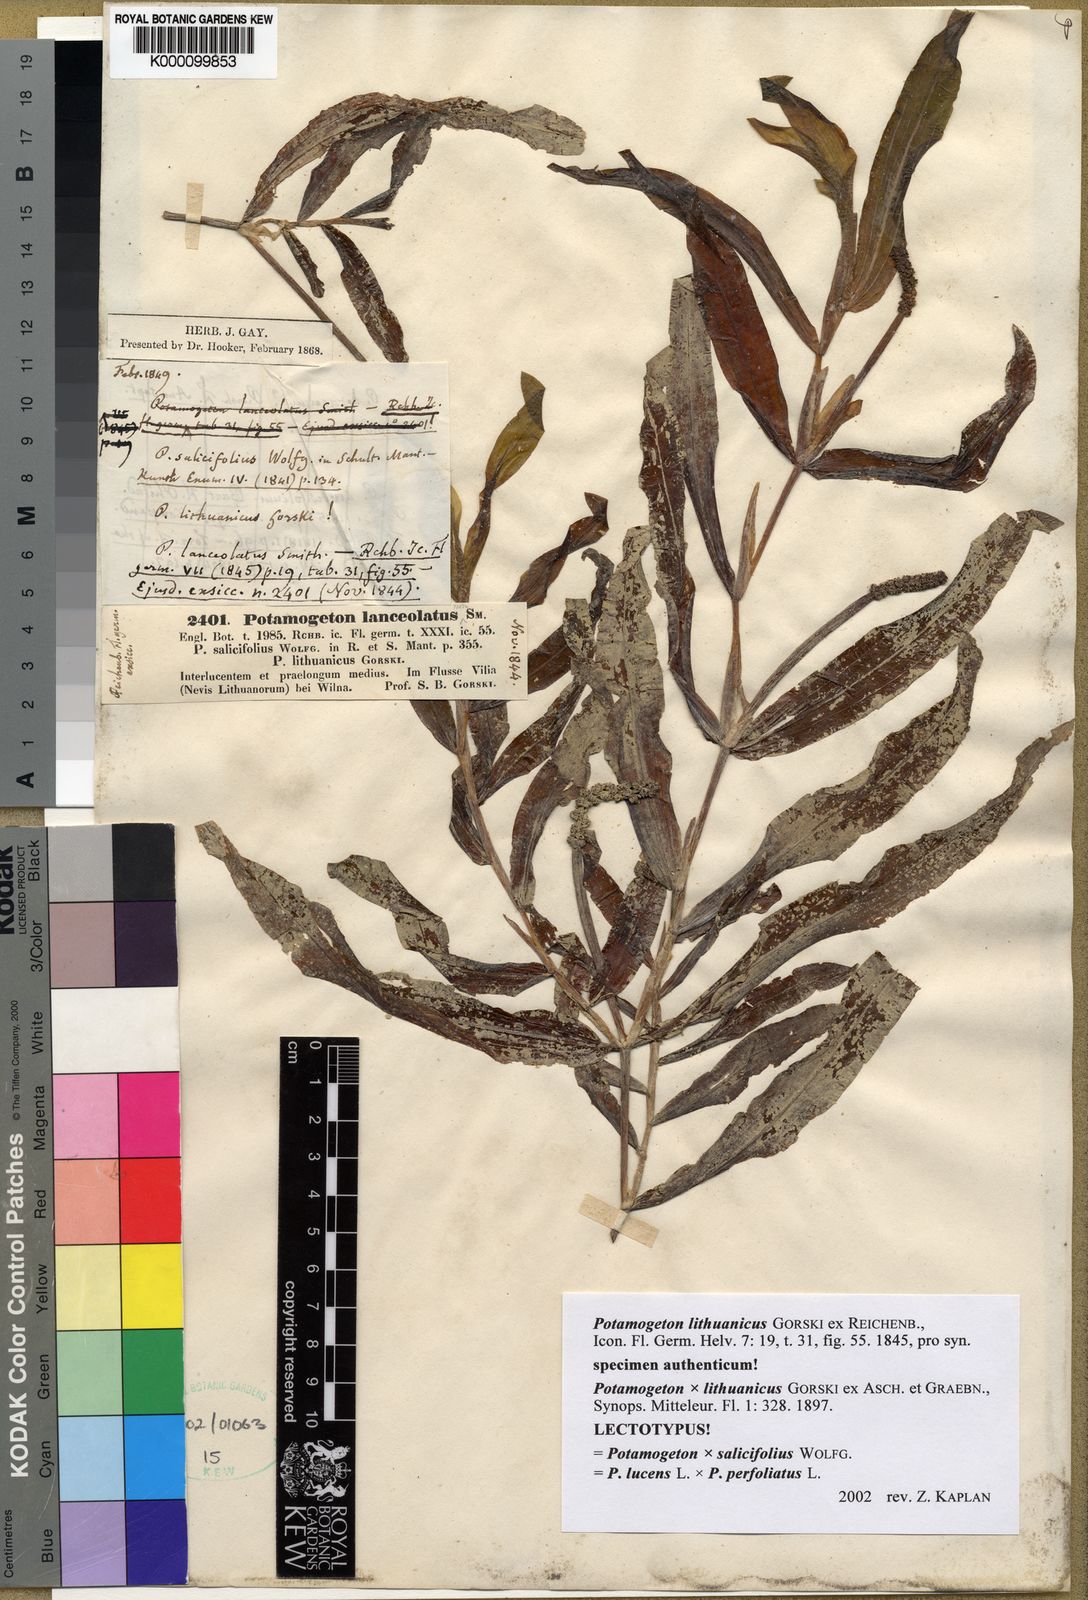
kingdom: Plantae
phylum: Tracheophyta
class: Liliopsida
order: Alismatales
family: Potamogetonaceae
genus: Potamogeton
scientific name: Potamogeton lucens
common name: Shining pondweed
